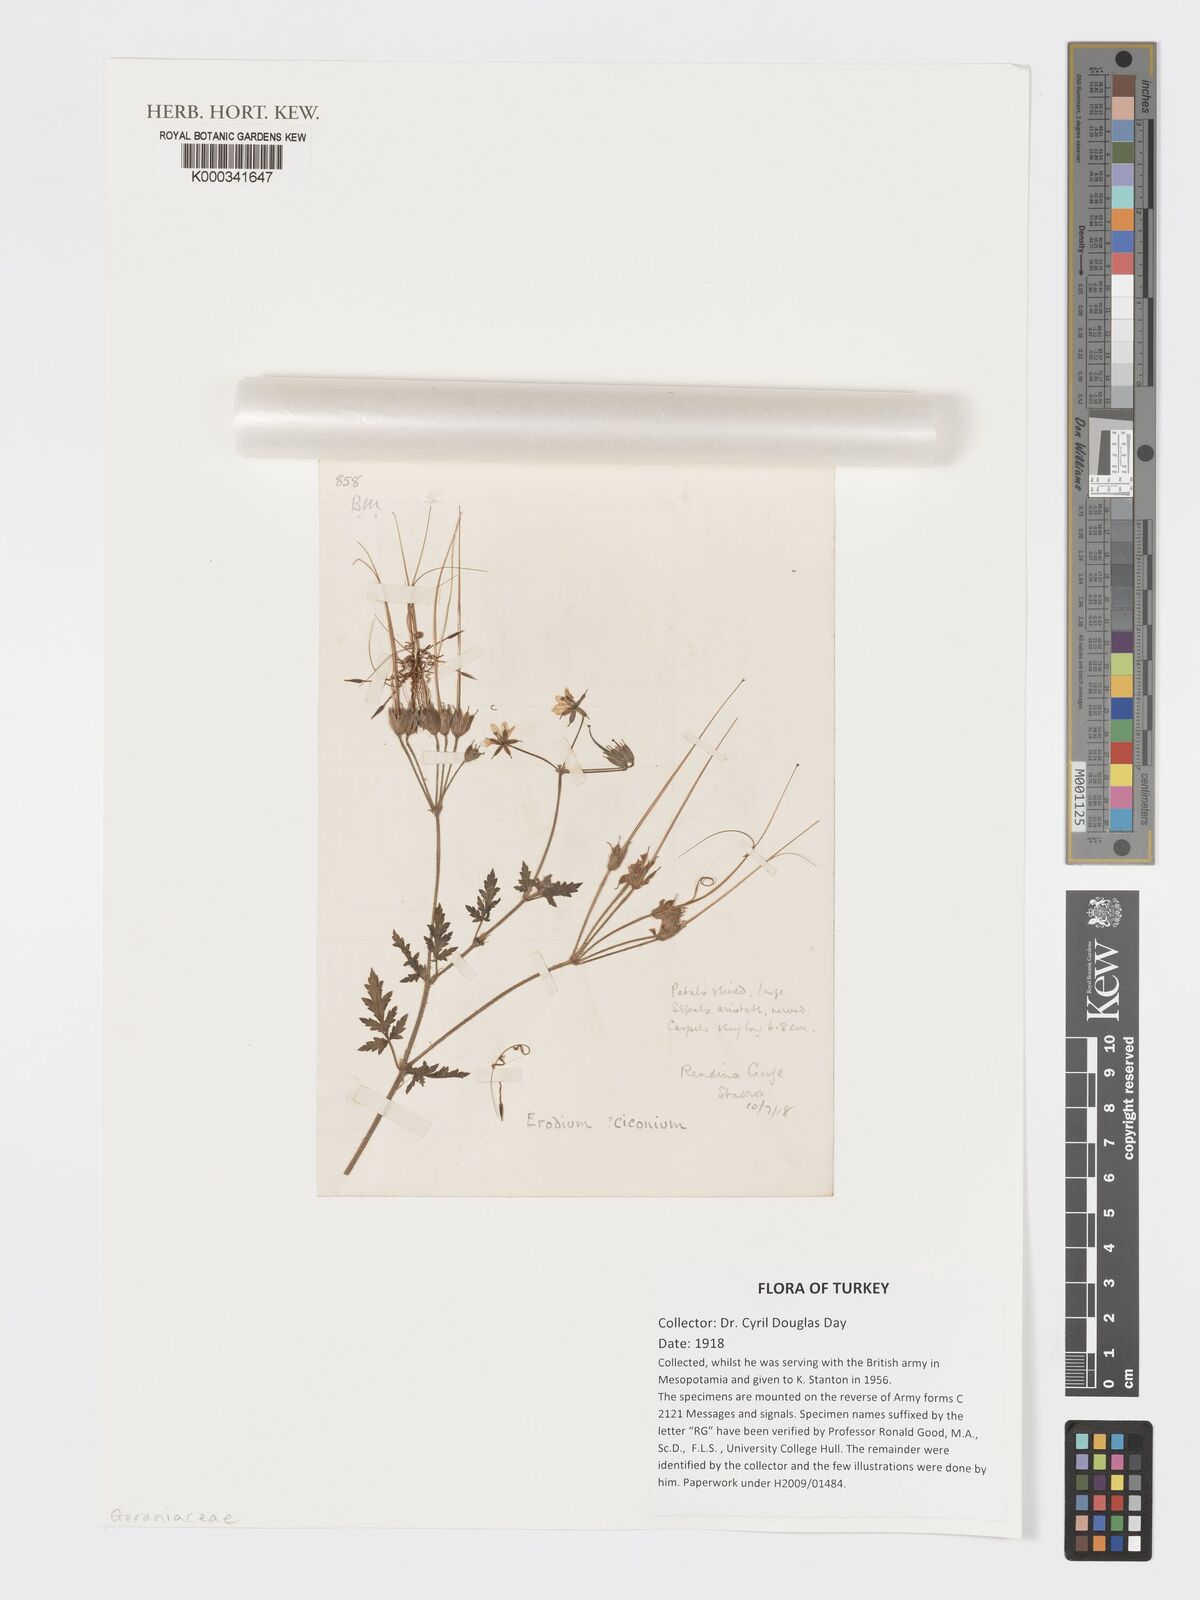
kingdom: Plantae
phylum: Tracheophyta
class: Magnoliopsida
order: Geraniales
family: Geraniaceae
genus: Erodium
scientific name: Erodium
